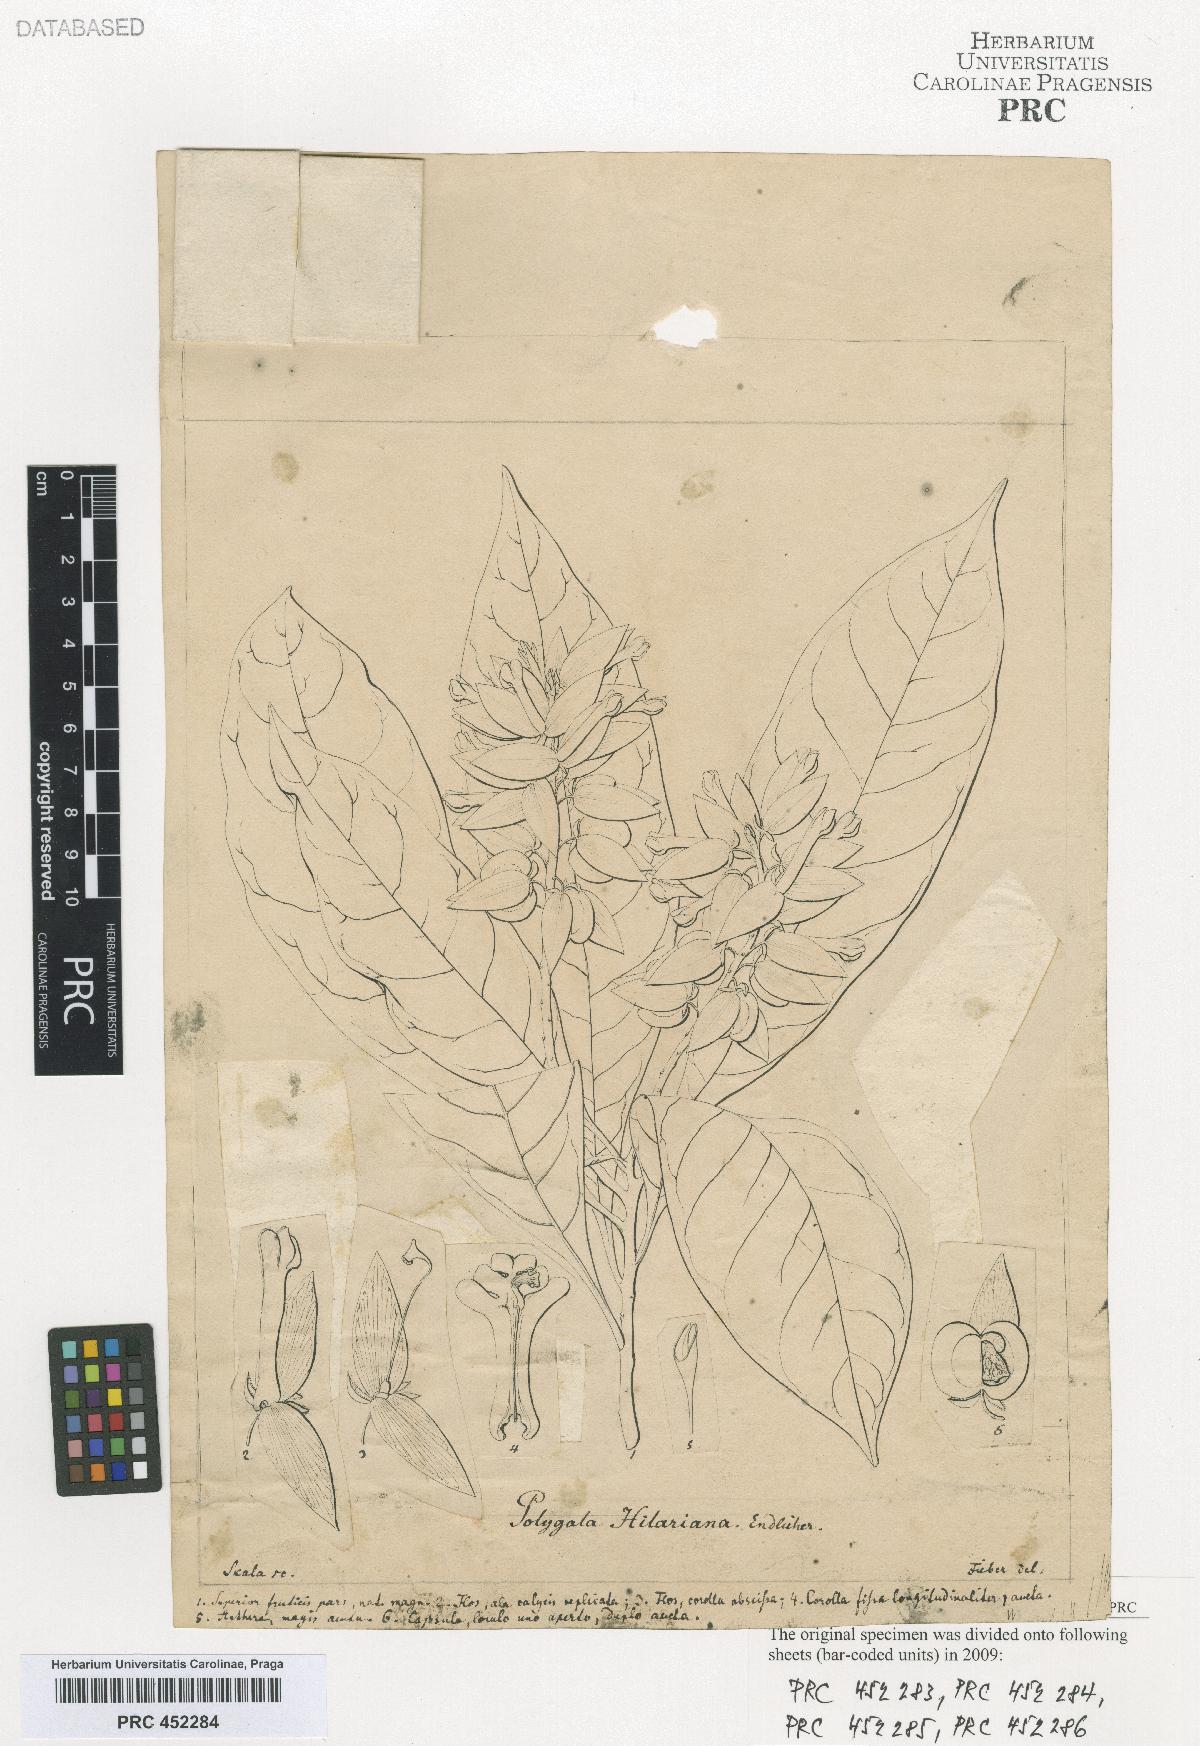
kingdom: Plantae
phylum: Tracheophyta
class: Magnoliopsida
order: Fabales
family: Polygalaceae
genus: Polygala
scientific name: Polygala
